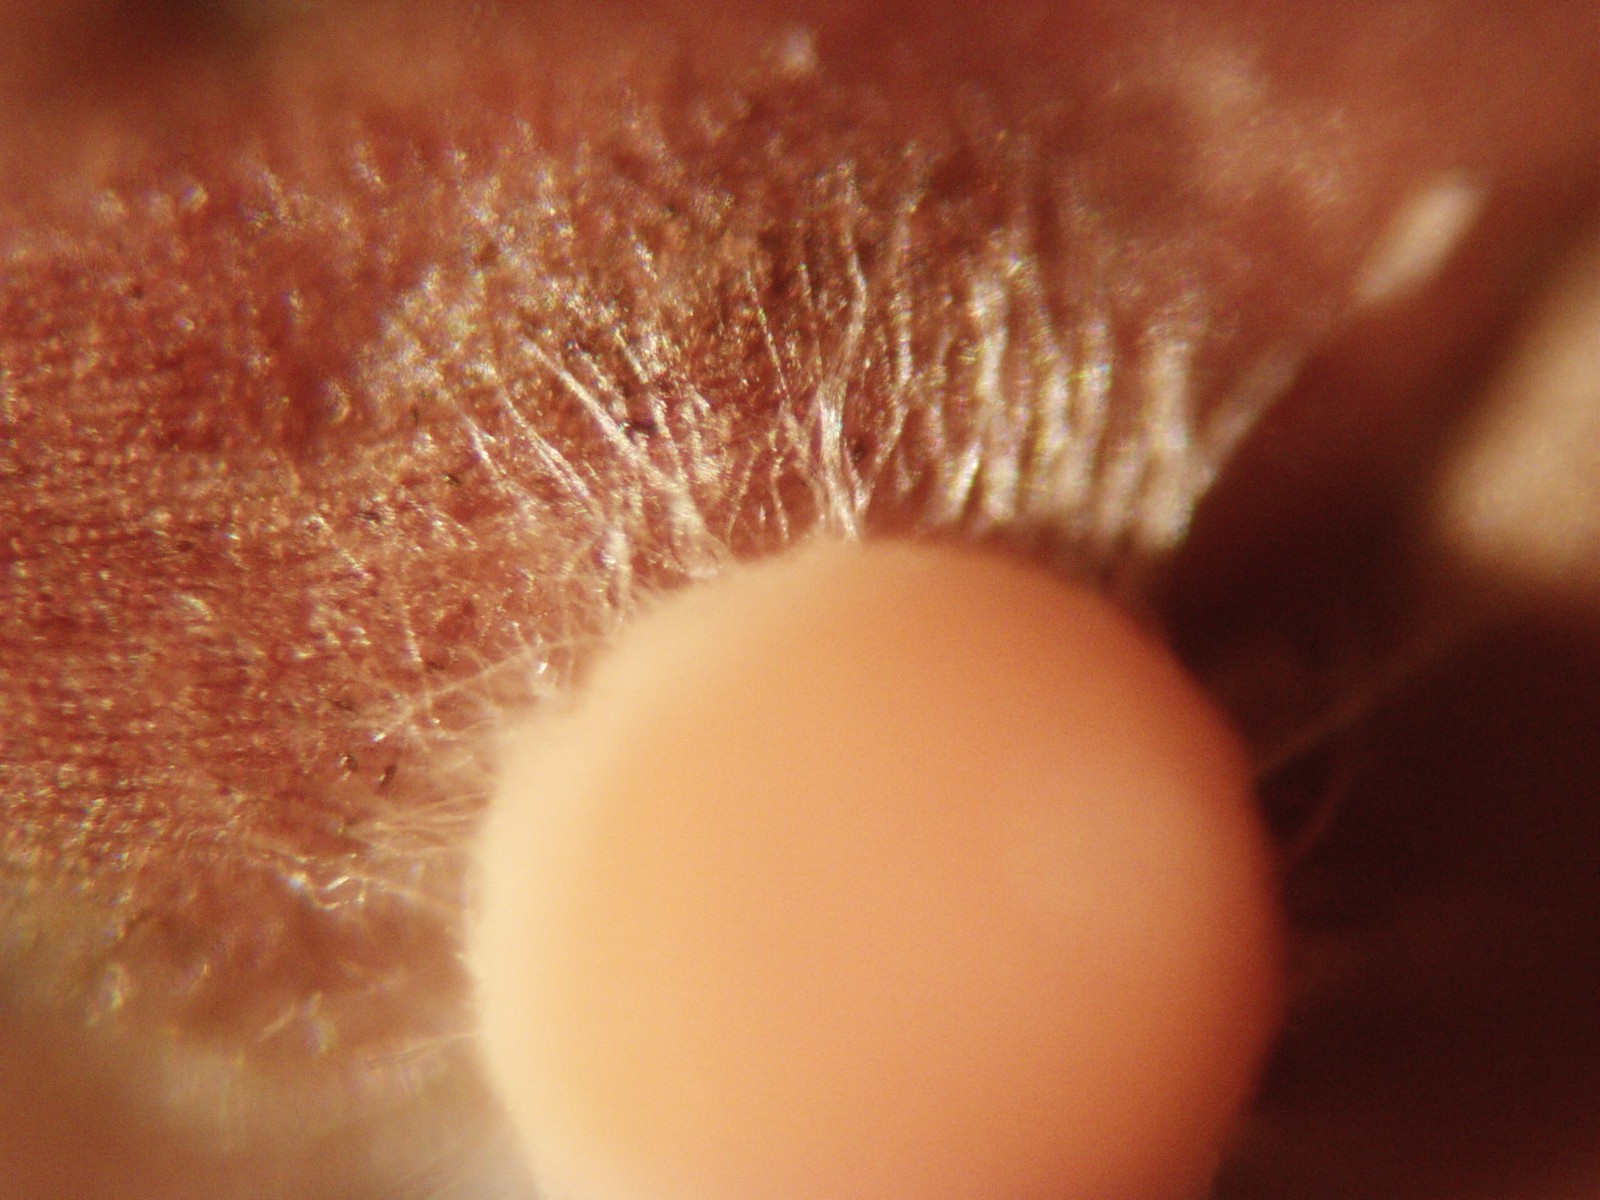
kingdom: Fungi
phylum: Ascomycota
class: Pezizomycetes
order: Pezizales
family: Sarcoscyphaceae
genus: Pithya
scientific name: Pithya cupressina
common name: lille dukatbæger
